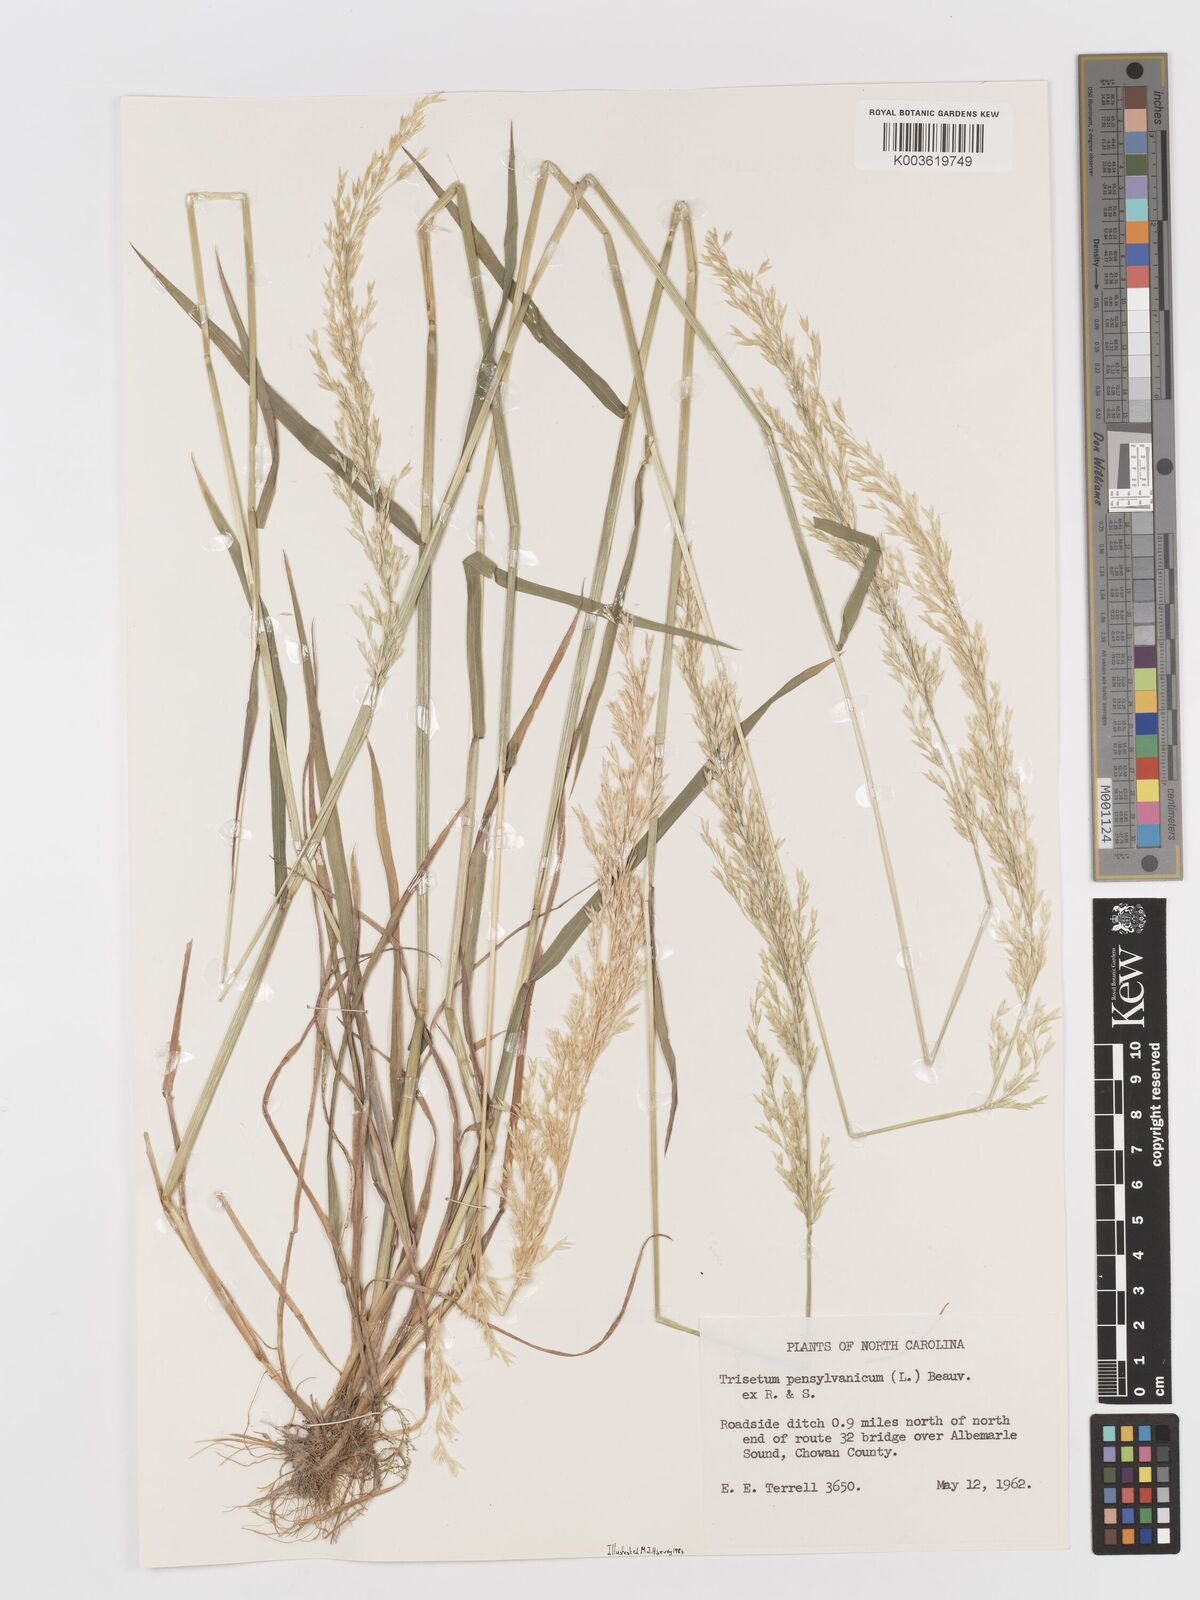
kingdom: Plantae
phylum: Tracheophyta
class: Liliopsida
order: Poales
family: Poaceae
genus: Sphenopholis
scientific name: Sphenopholis pensylvanica
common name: Swamp oats
